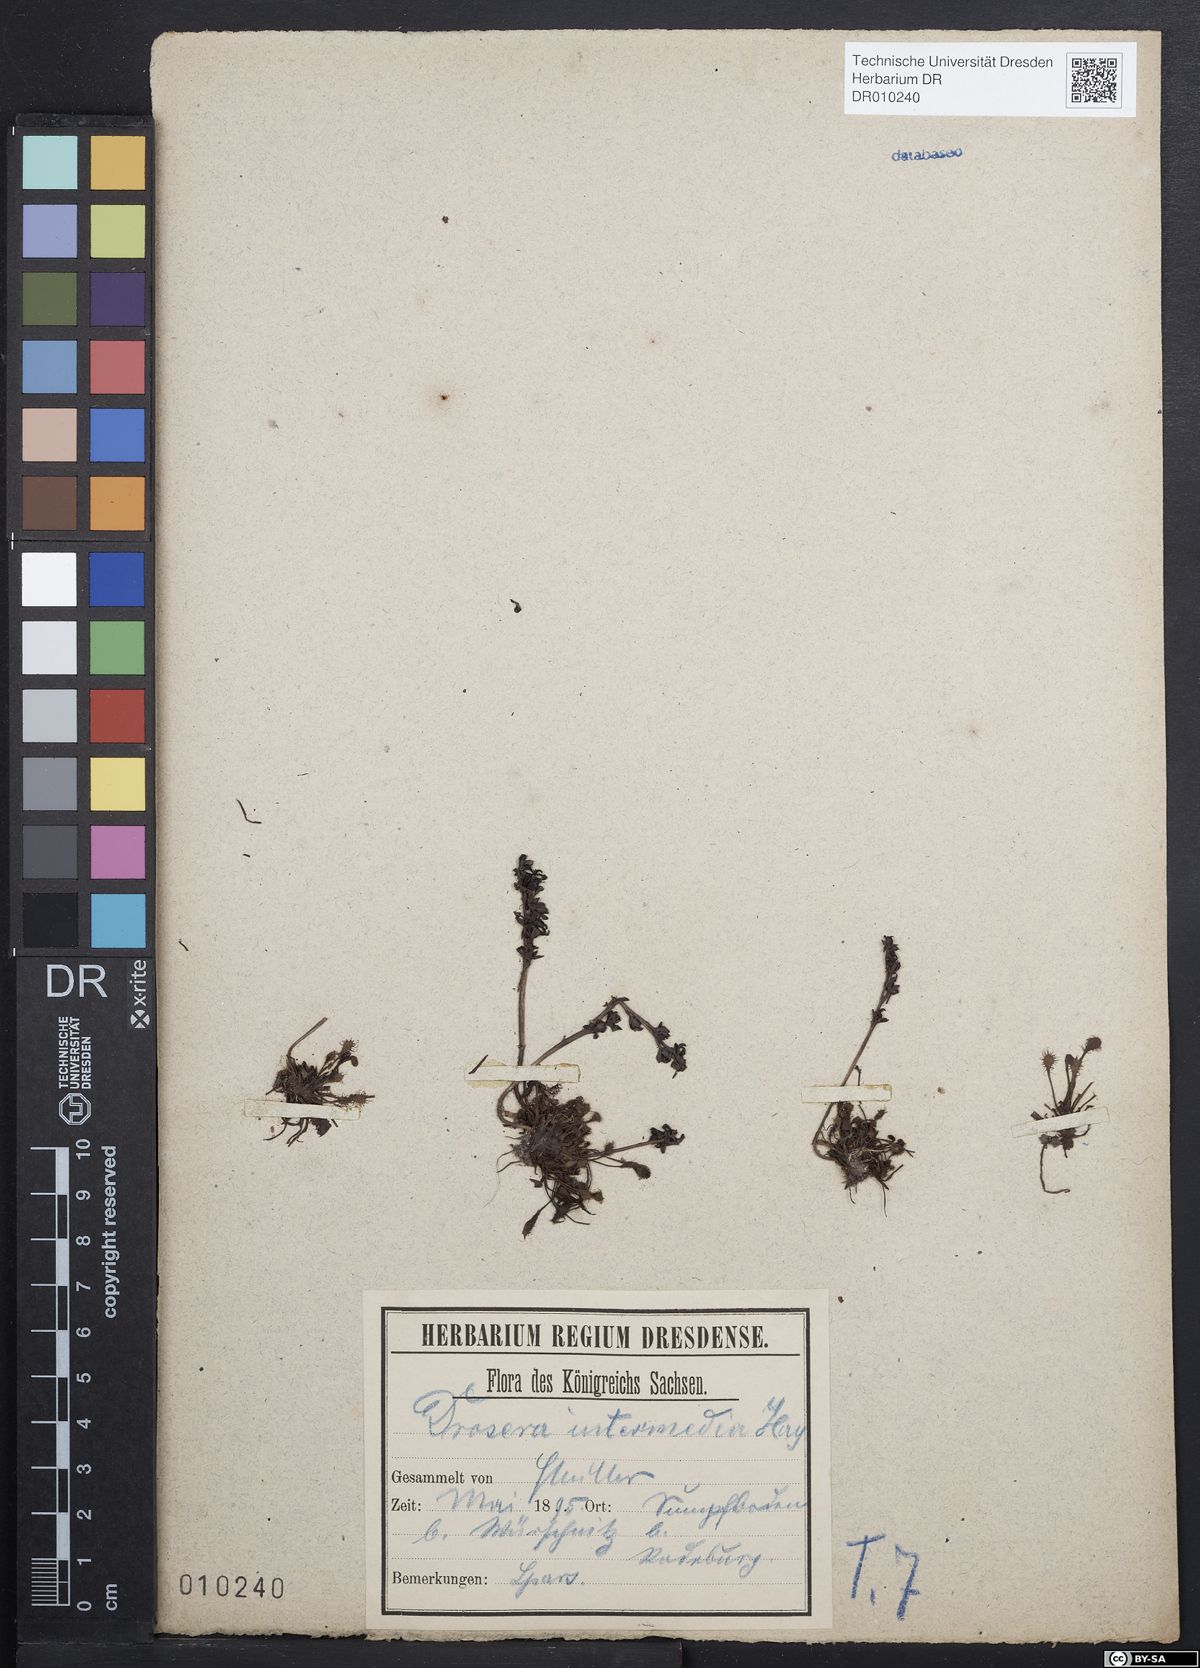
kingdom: Plantae
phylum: Tracheophyta
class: Magnoliopsida
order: Myrtales
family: Onagraceae
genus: Epilobium
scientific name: Epilobium anagallidifolium
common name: Alpine willowherb
